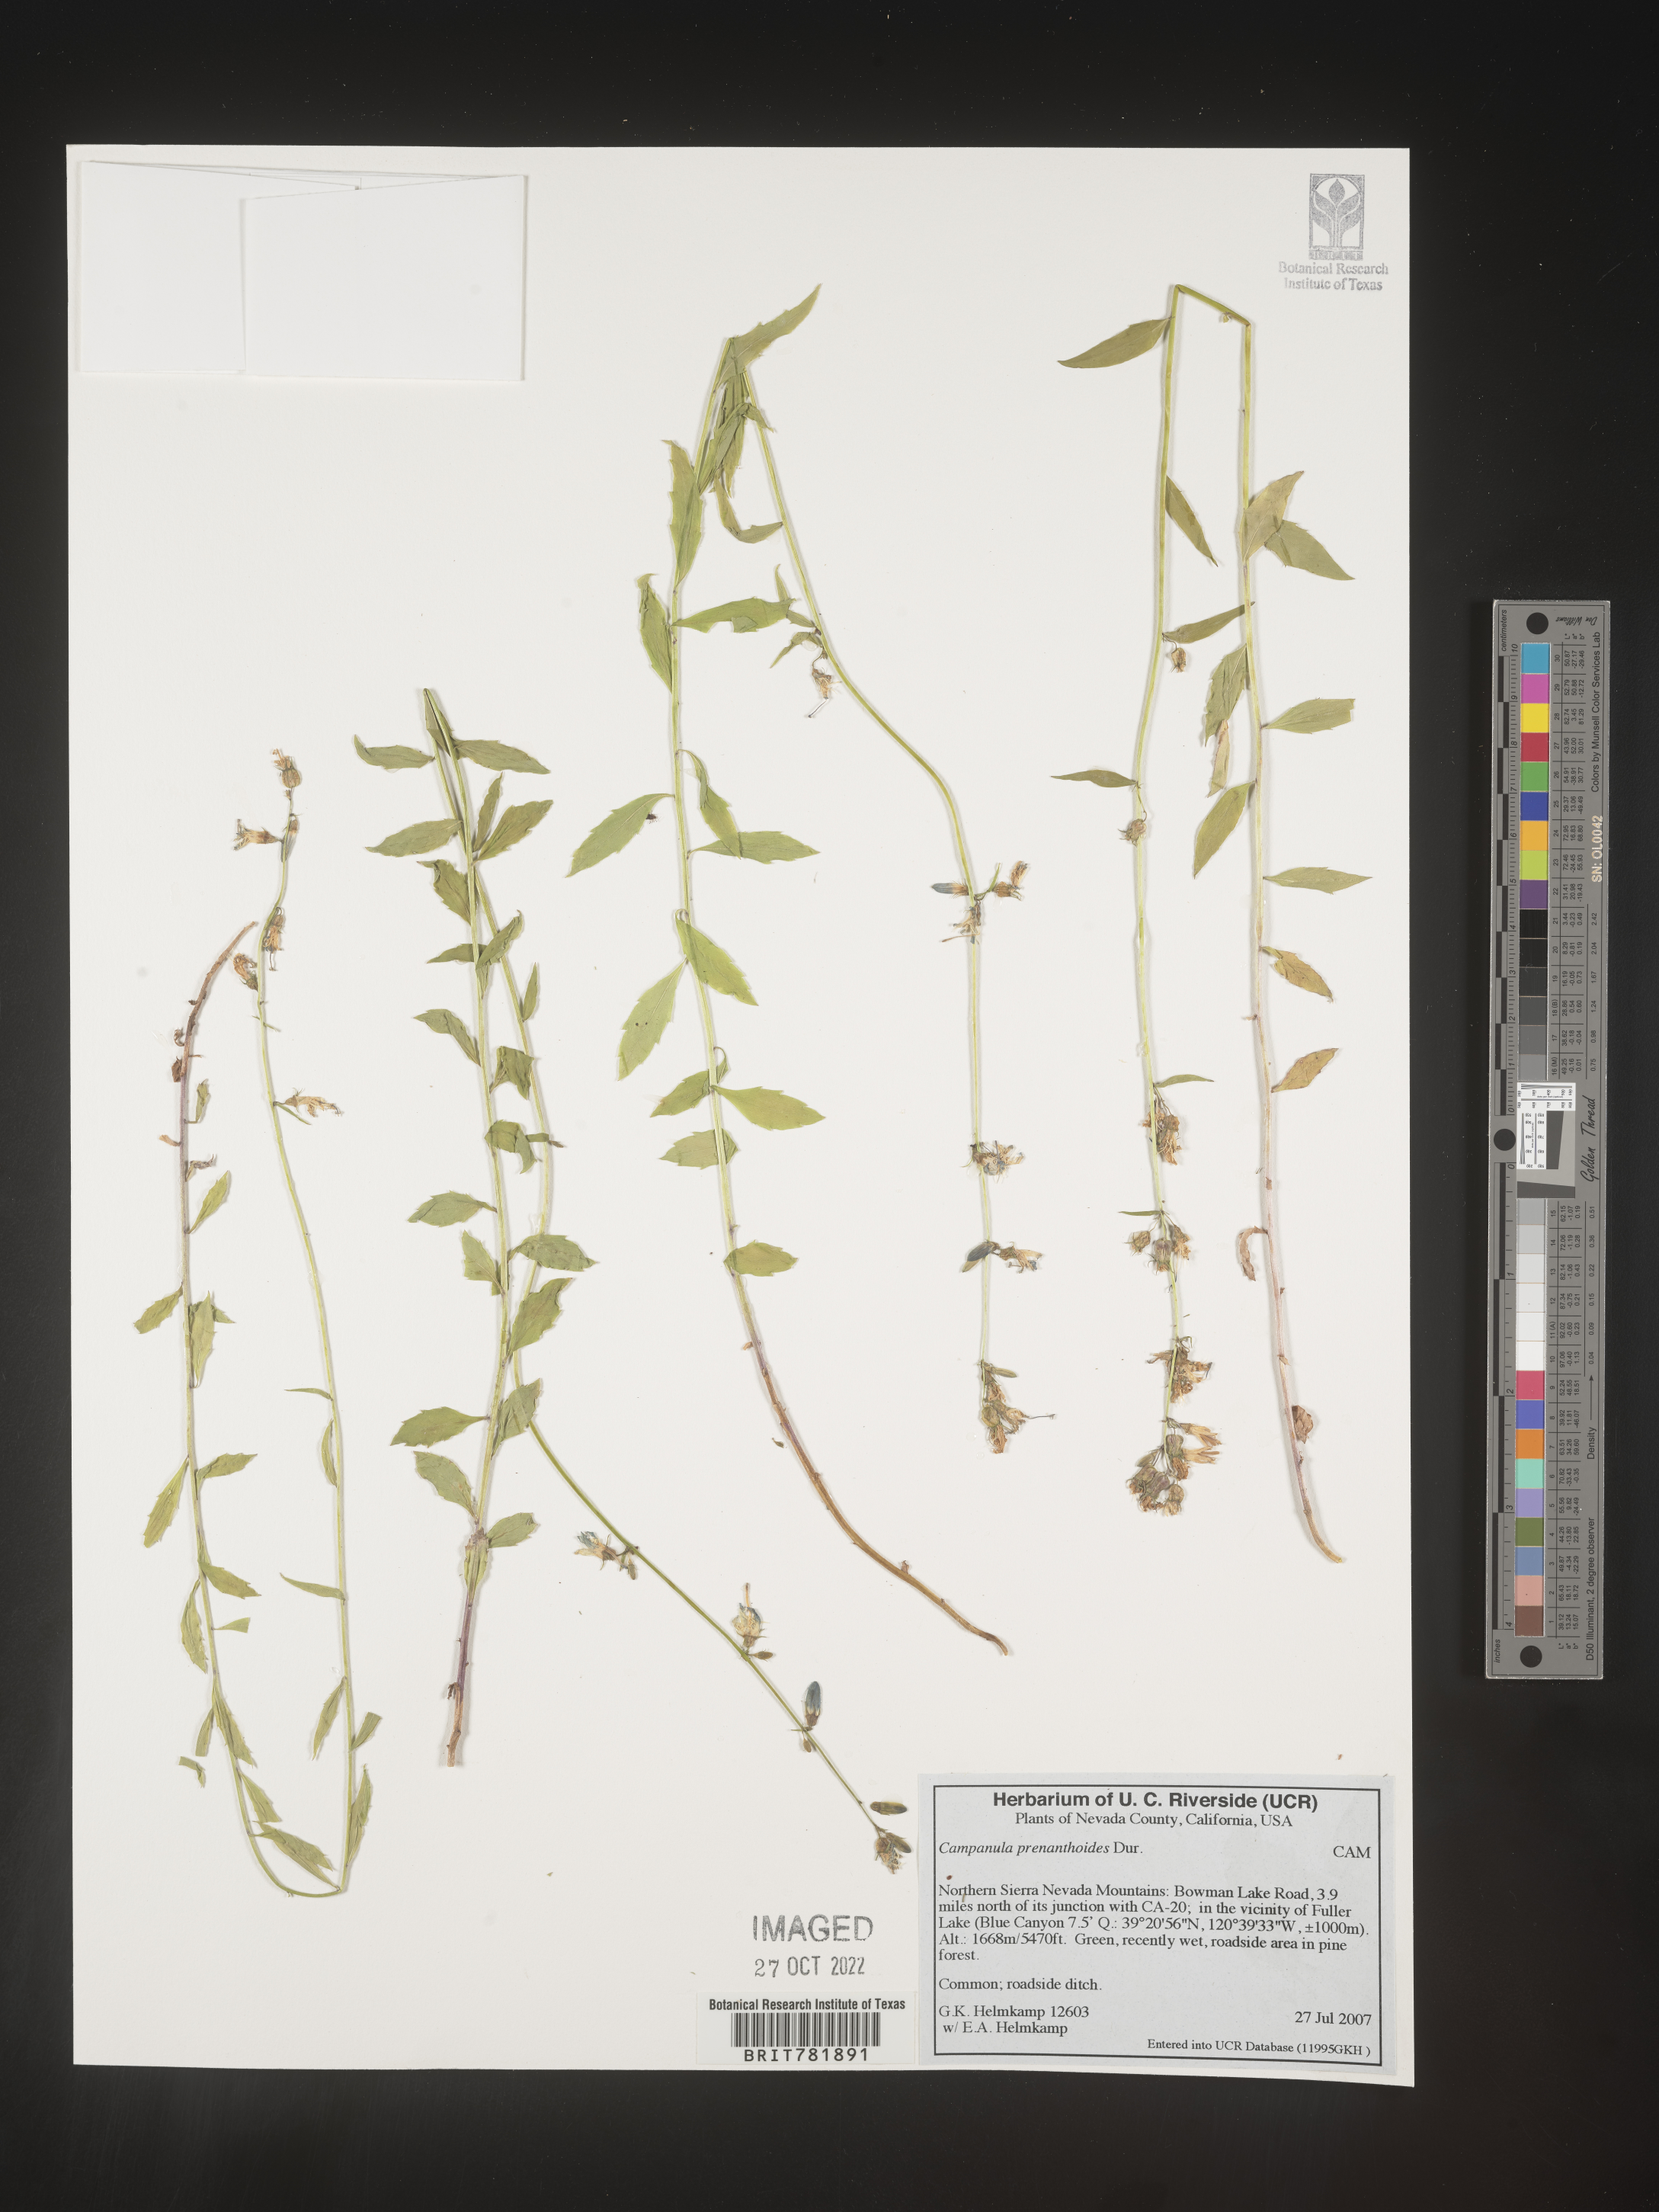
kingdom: Plantae
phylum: Tracheophyta
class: Magnoliopsida
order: Asterales
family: Campanulaceae
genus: Campanula
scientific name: Campanula
